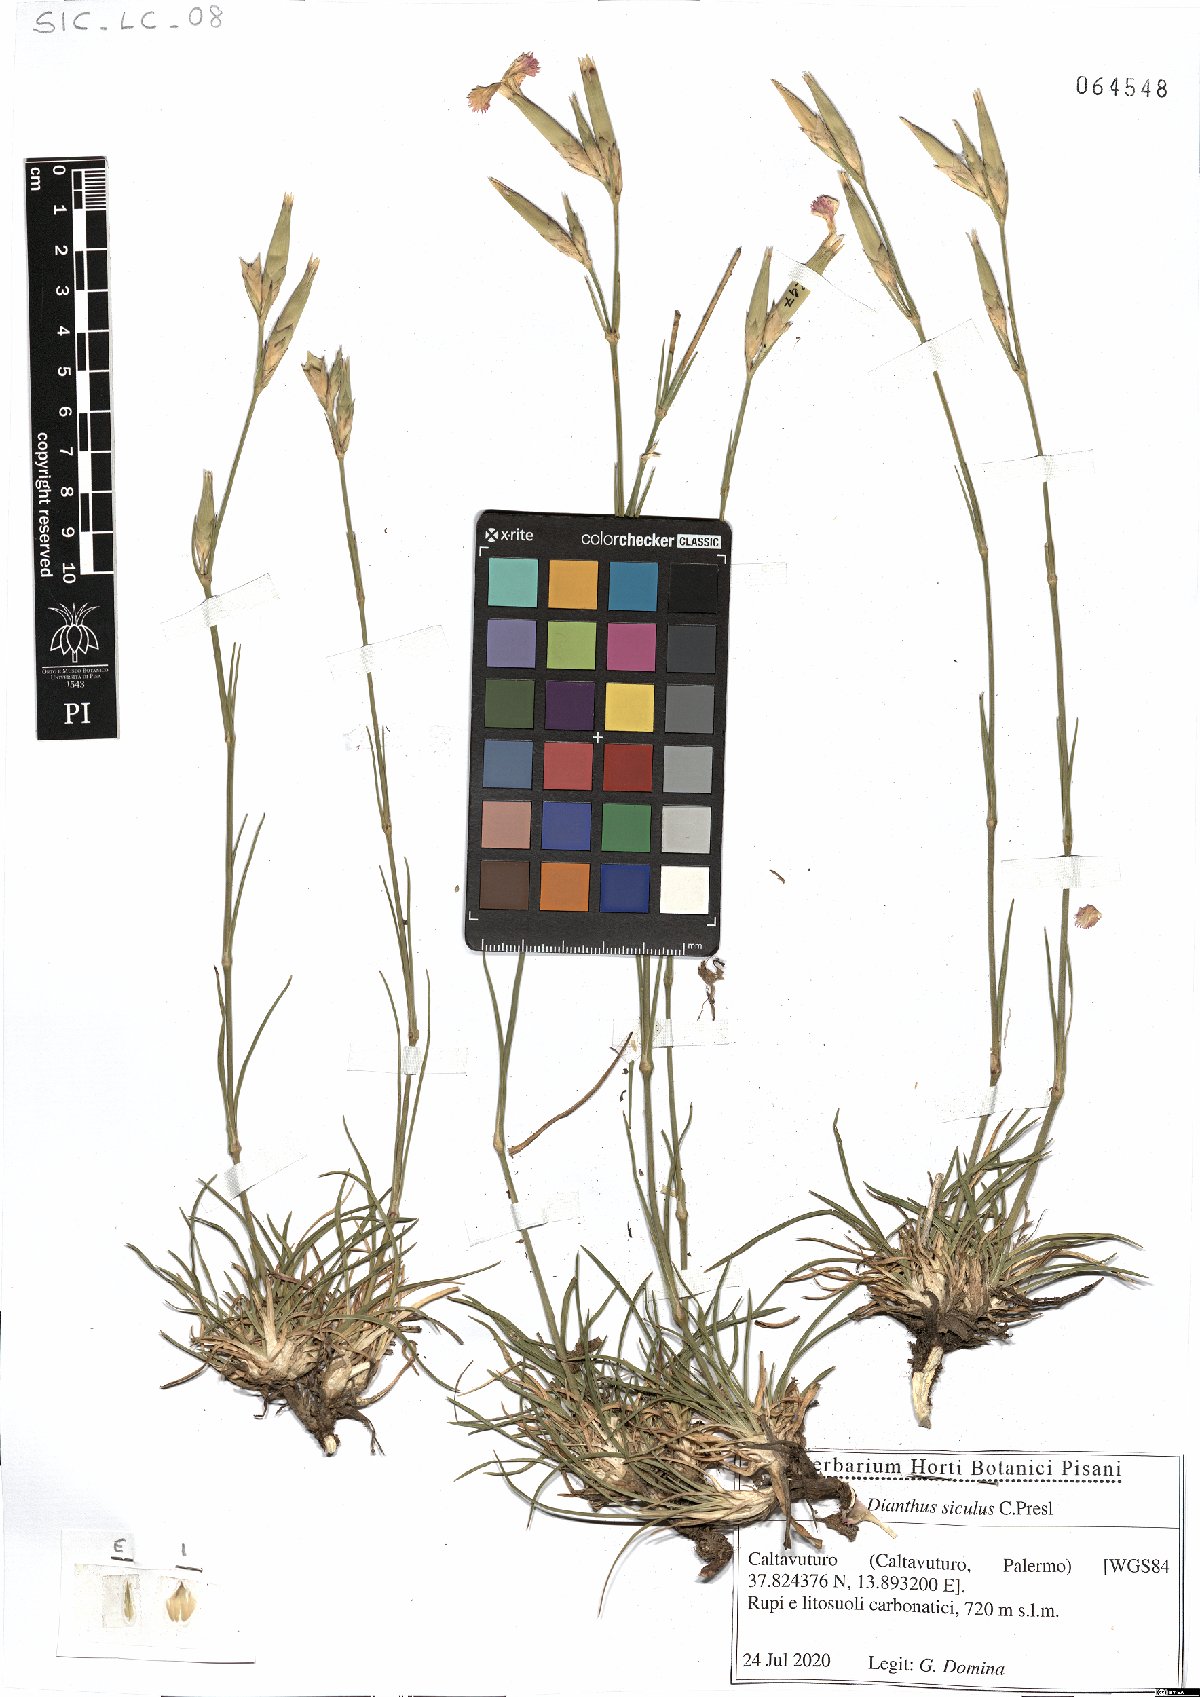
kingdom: Plantae
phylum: Tracheophyta
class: Magnoliopsida
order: Caryophyllales
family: Caryophyllaceae
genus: Dianthus
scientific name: Dianthus siculus
